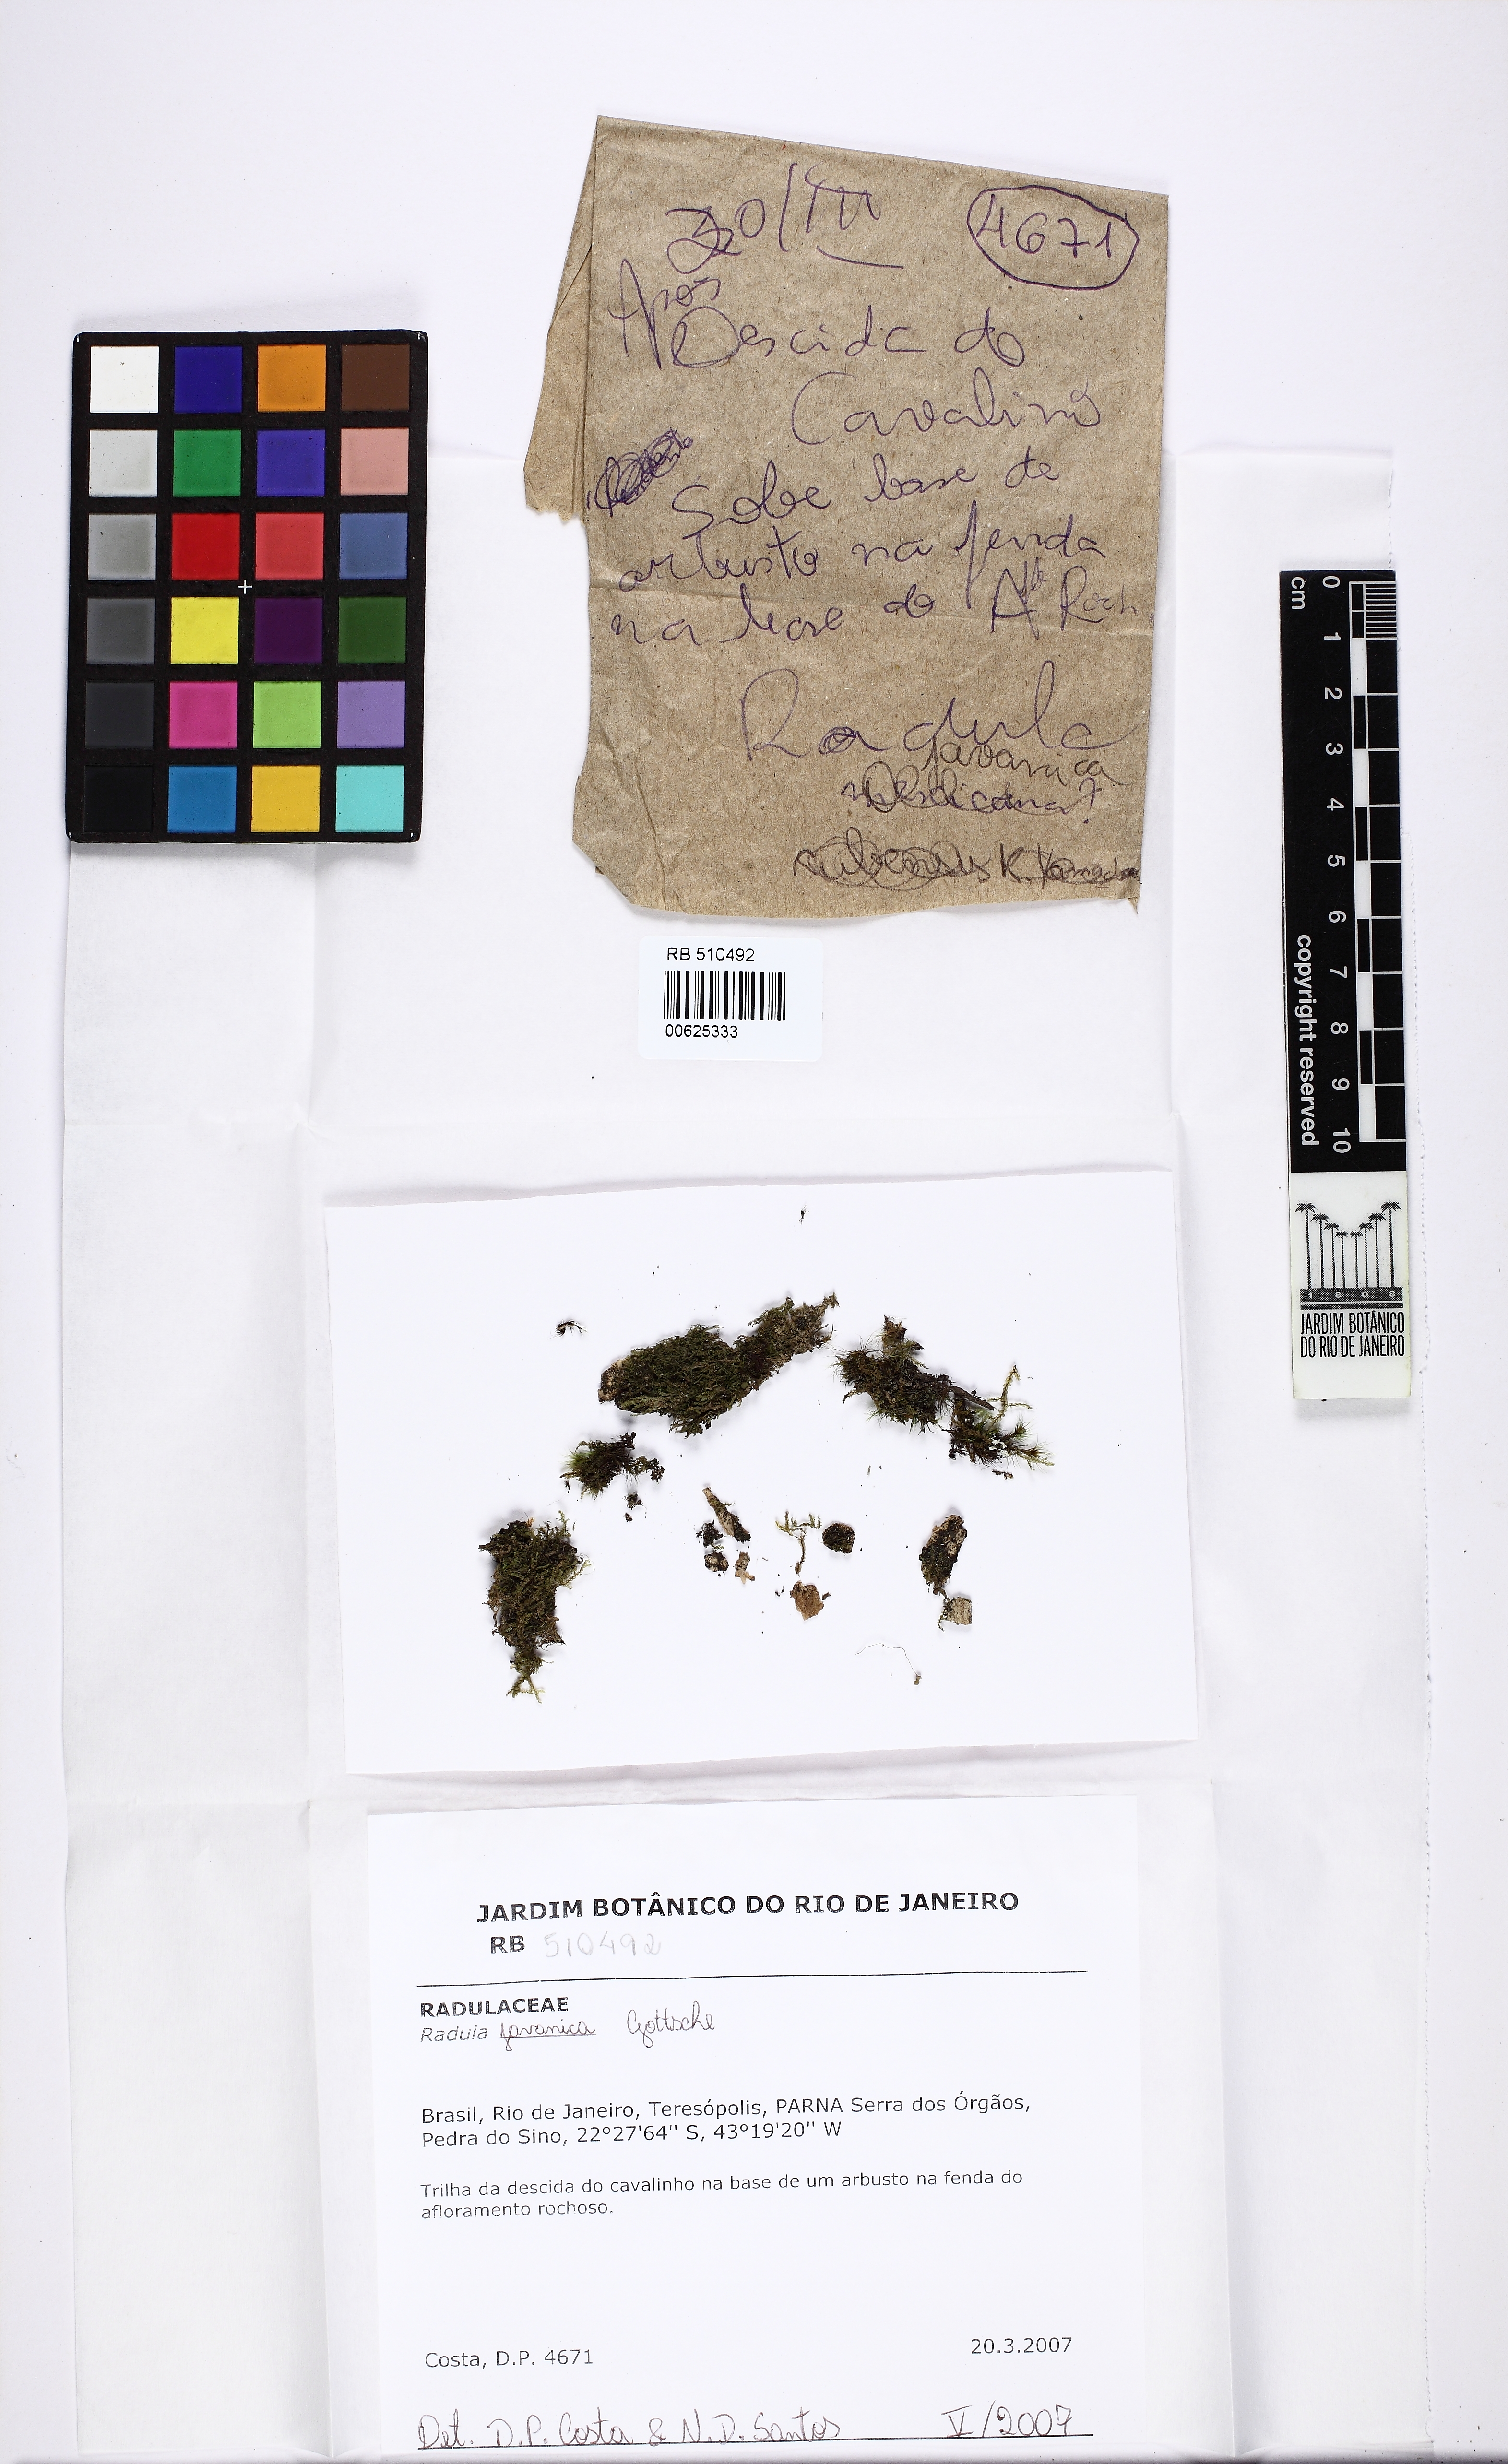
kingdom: Plantae
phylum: Marchantiophyta
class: Jungermanniopsida
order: Porellales
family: Radulaceae
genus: Radula
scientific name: Radula javanica
